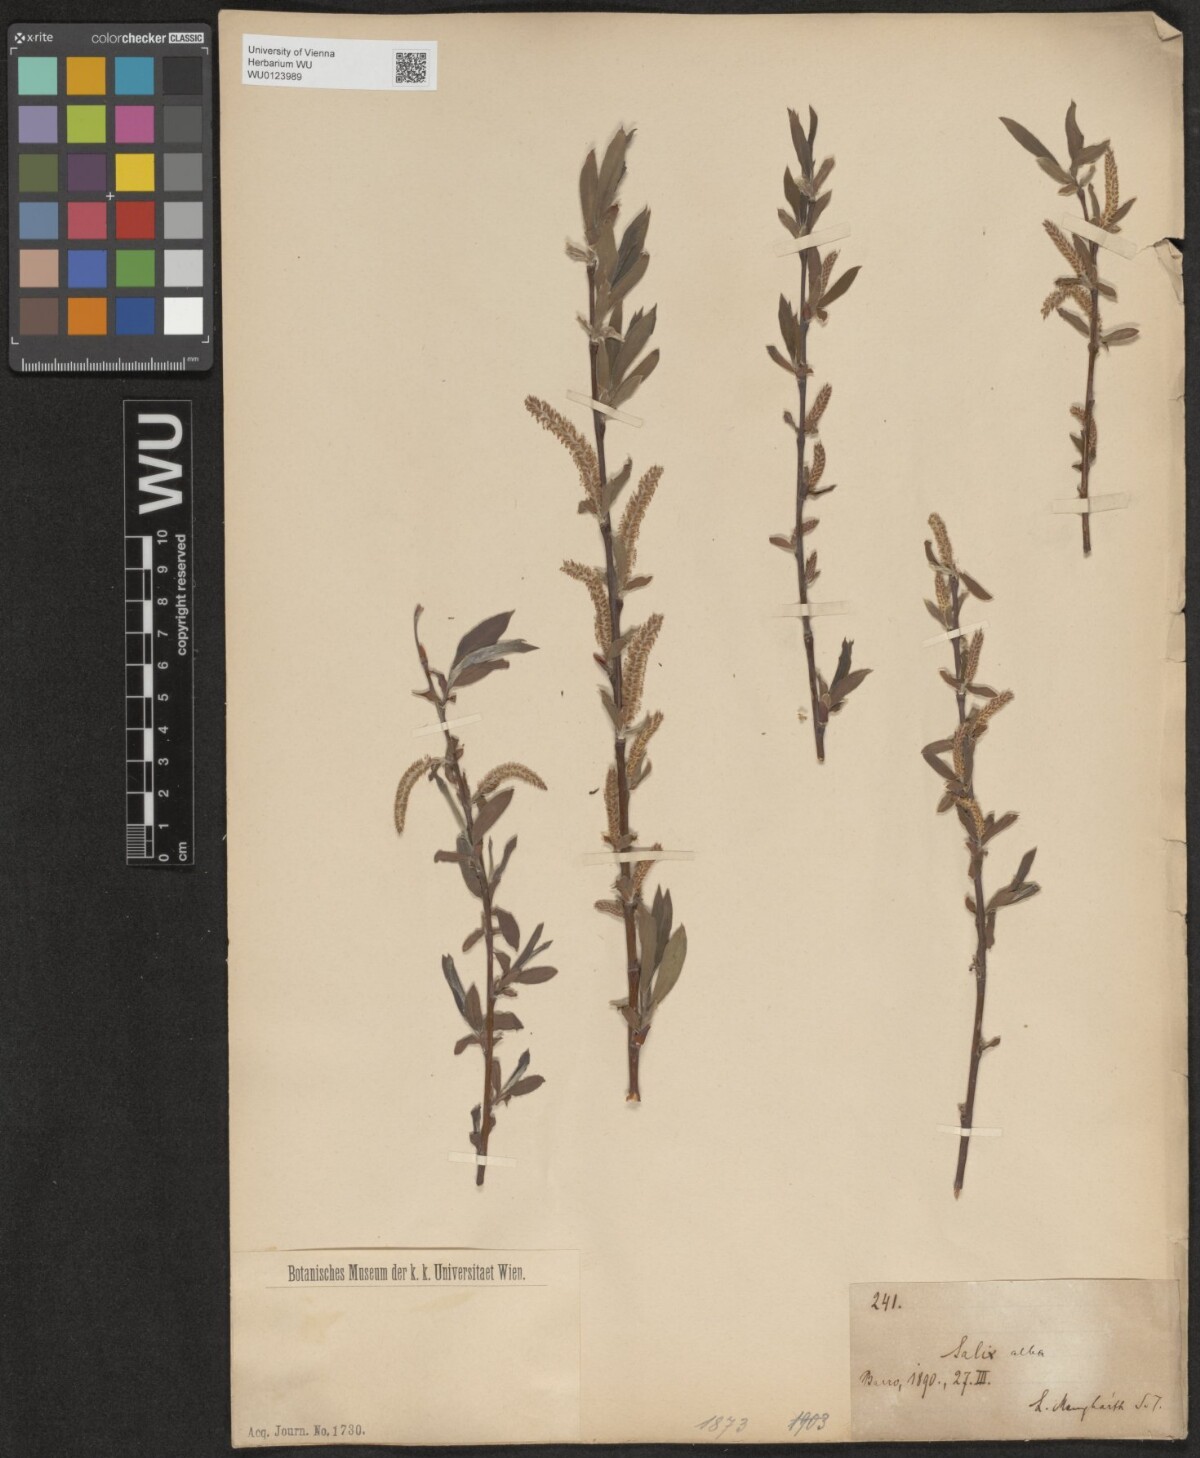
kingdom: Plantae
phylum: Tracheophyta
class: Magnoliopsida
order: Malpighiales
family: Salicaceae
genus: Salix
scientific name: Salix alba
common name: White willow
